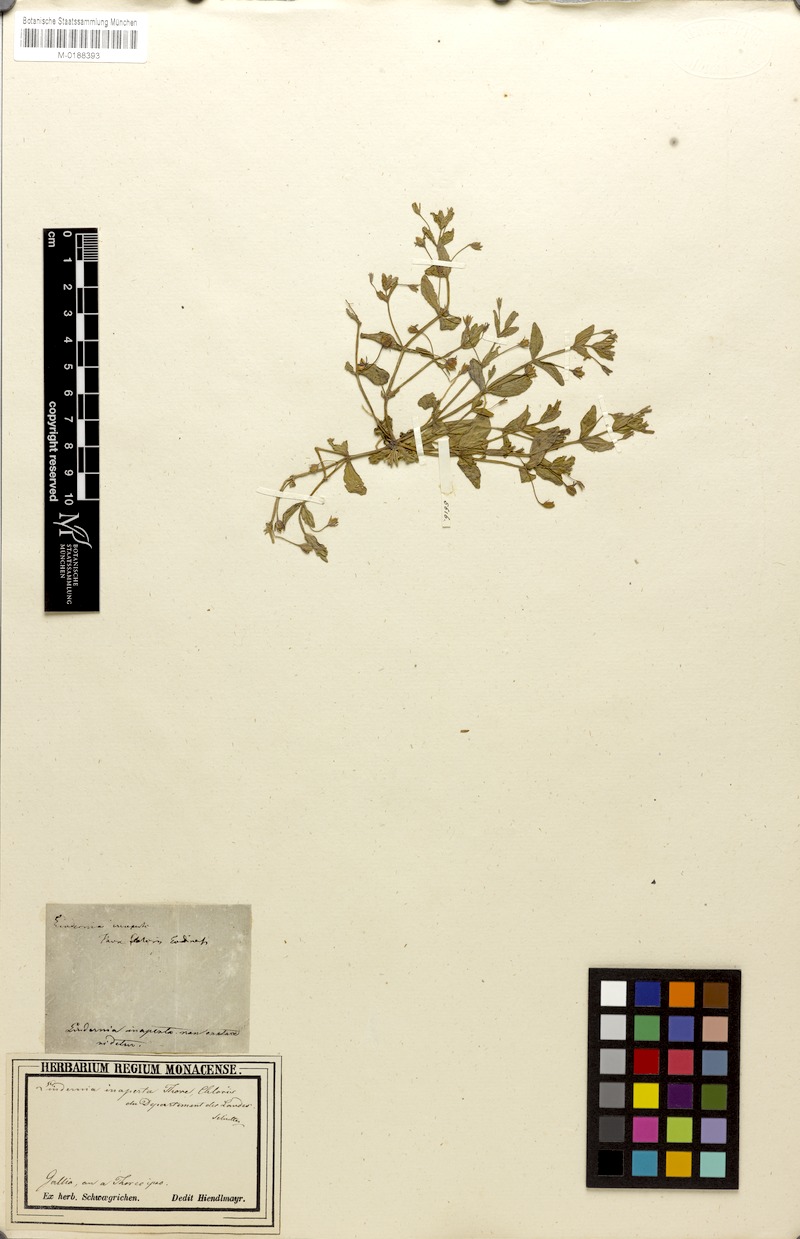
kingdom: Plantae
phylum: Tracheophyta
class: Magnoliopsida
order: Lamiales
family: Linderniaceae
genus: Lindernia
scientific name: Lindernia procumbens
